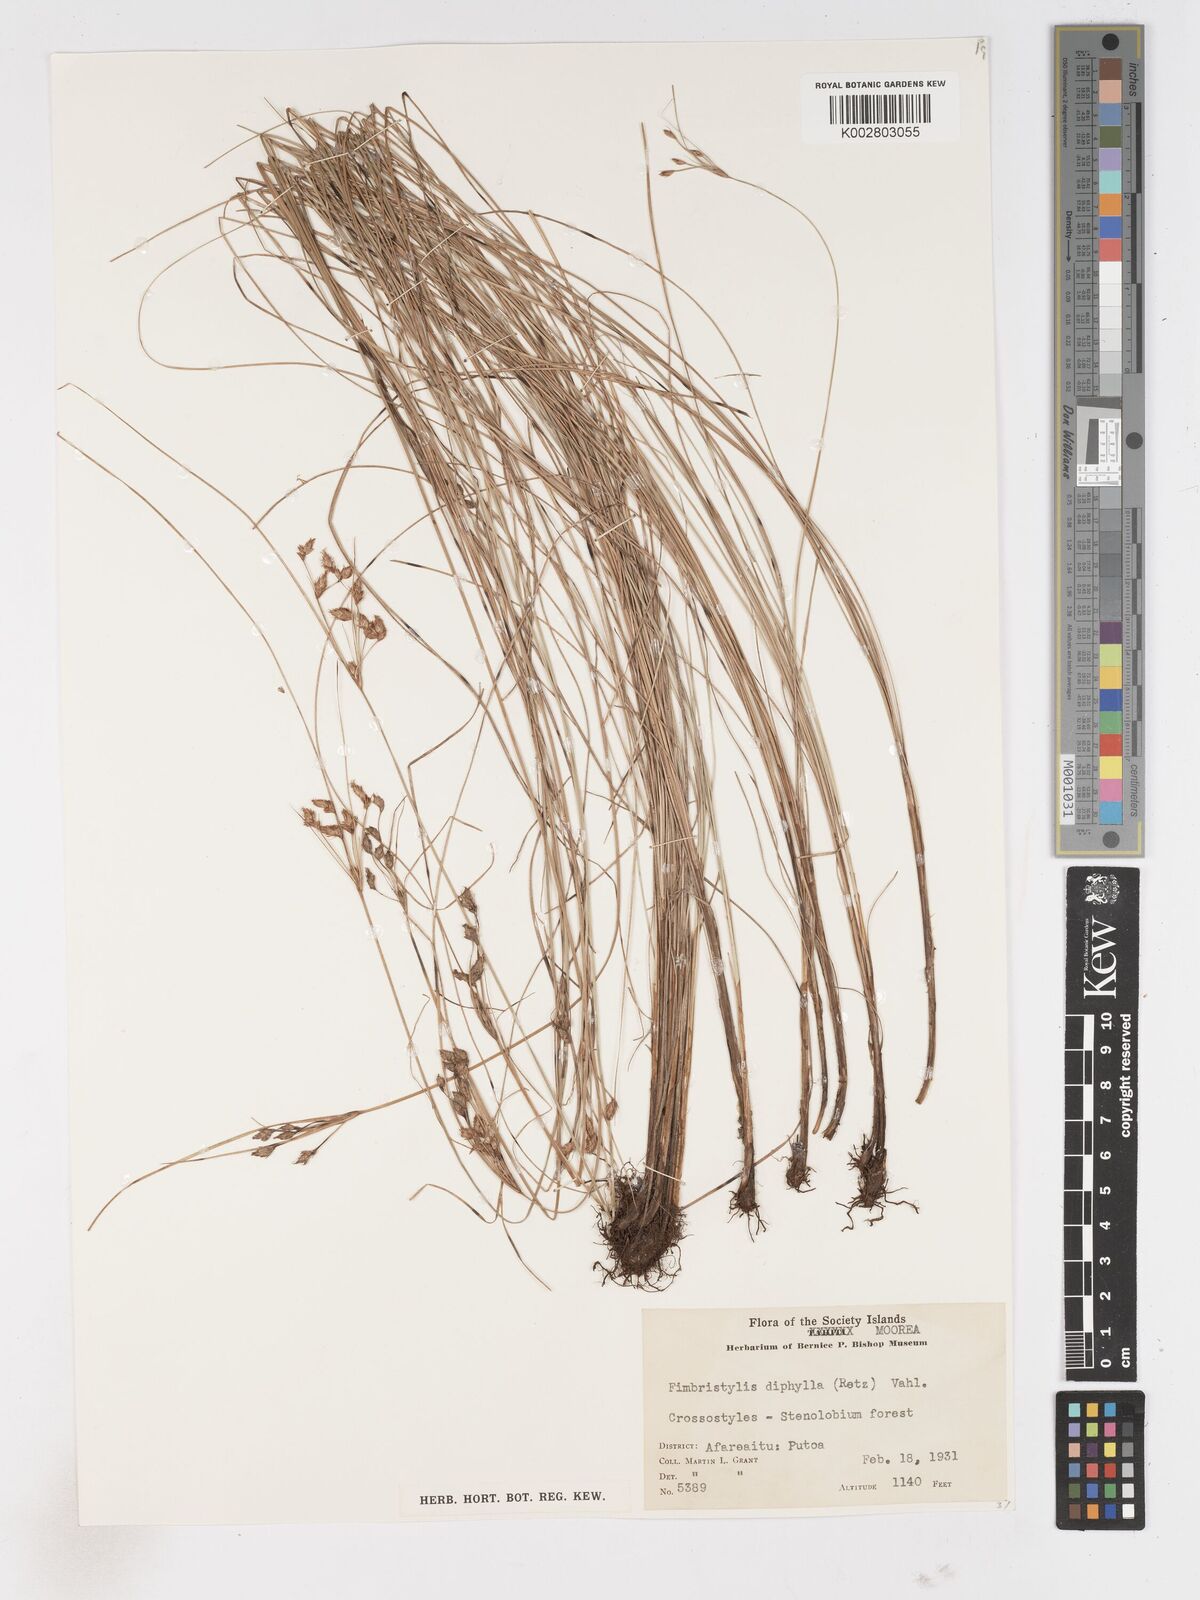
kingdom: Plantae
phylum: Tracheophyta
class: Liliopsida
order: Poales
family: Cyperaceae
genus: Fimbristylis
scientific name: Fimbristylis dichotoma
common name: Forked fimbry
